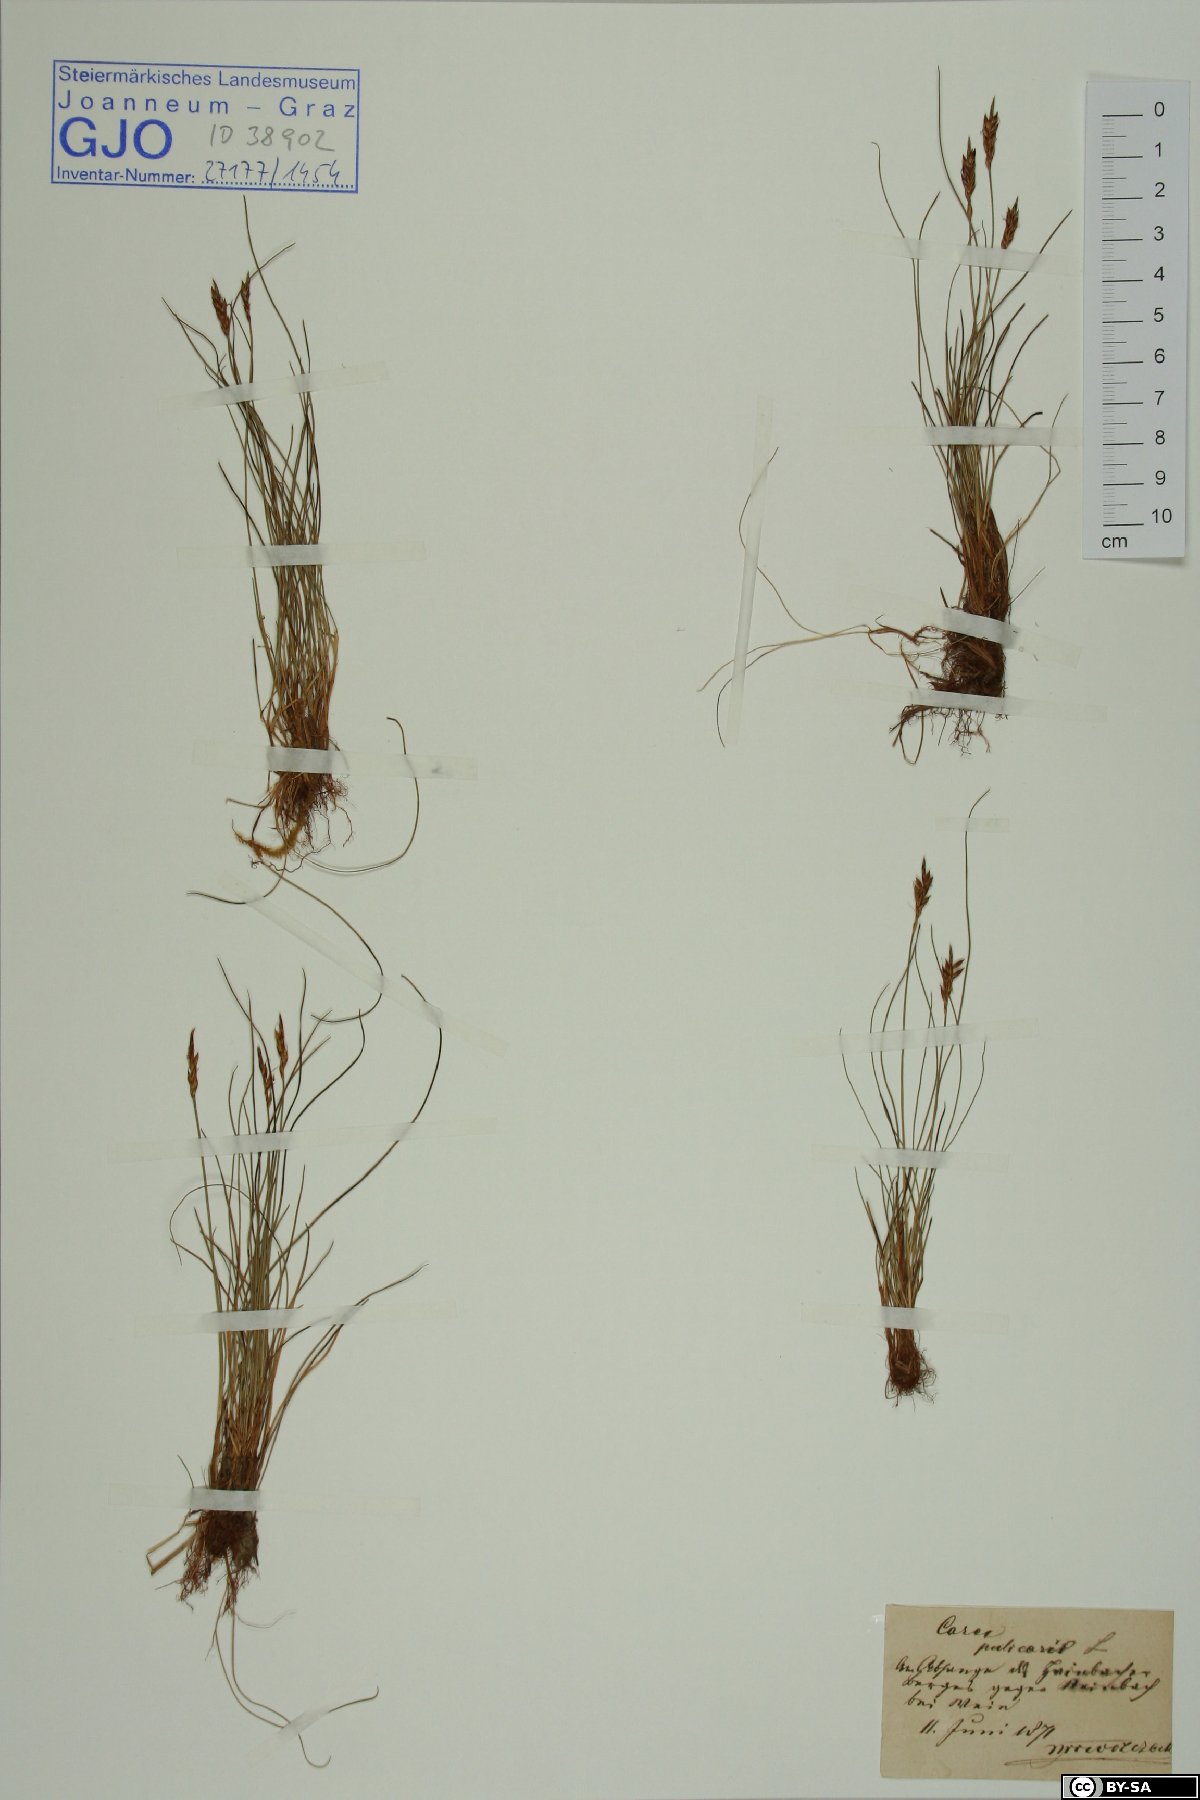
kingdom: Plantae
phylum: Tracheophyta
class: Liliopsida
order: Poales
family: Cyperaceae
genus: Carex
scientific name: Carex pulicaris
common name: Flea sedge
